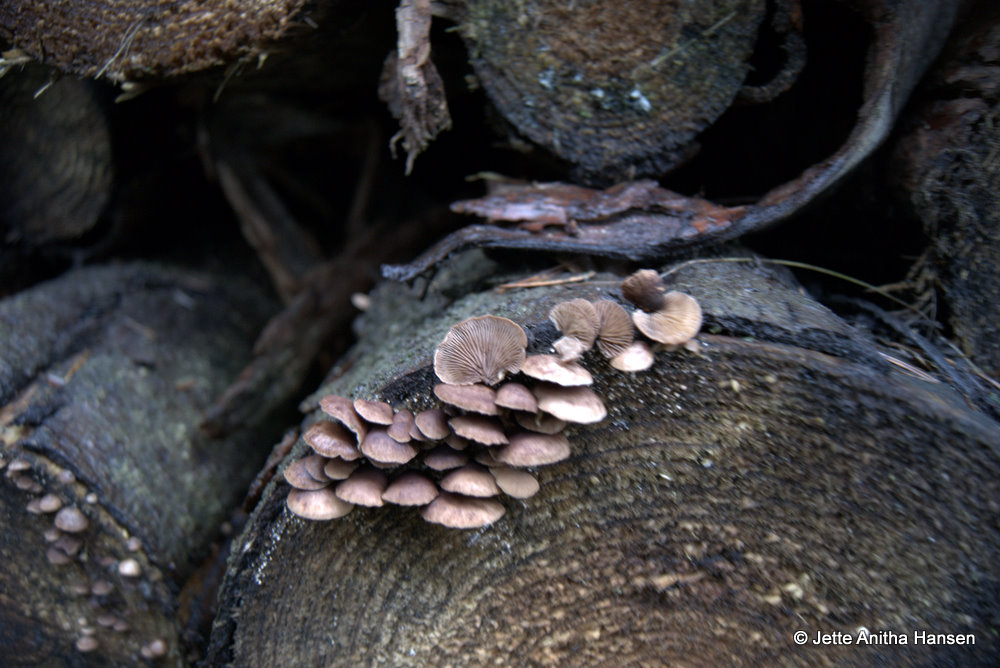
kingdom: Fungi
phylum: Basidiomycota
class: Agaricomycetes
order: Agaricales
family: Strophariaceae
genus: Deconica
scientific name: Deconica horizontalis
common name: ved-stråhat
